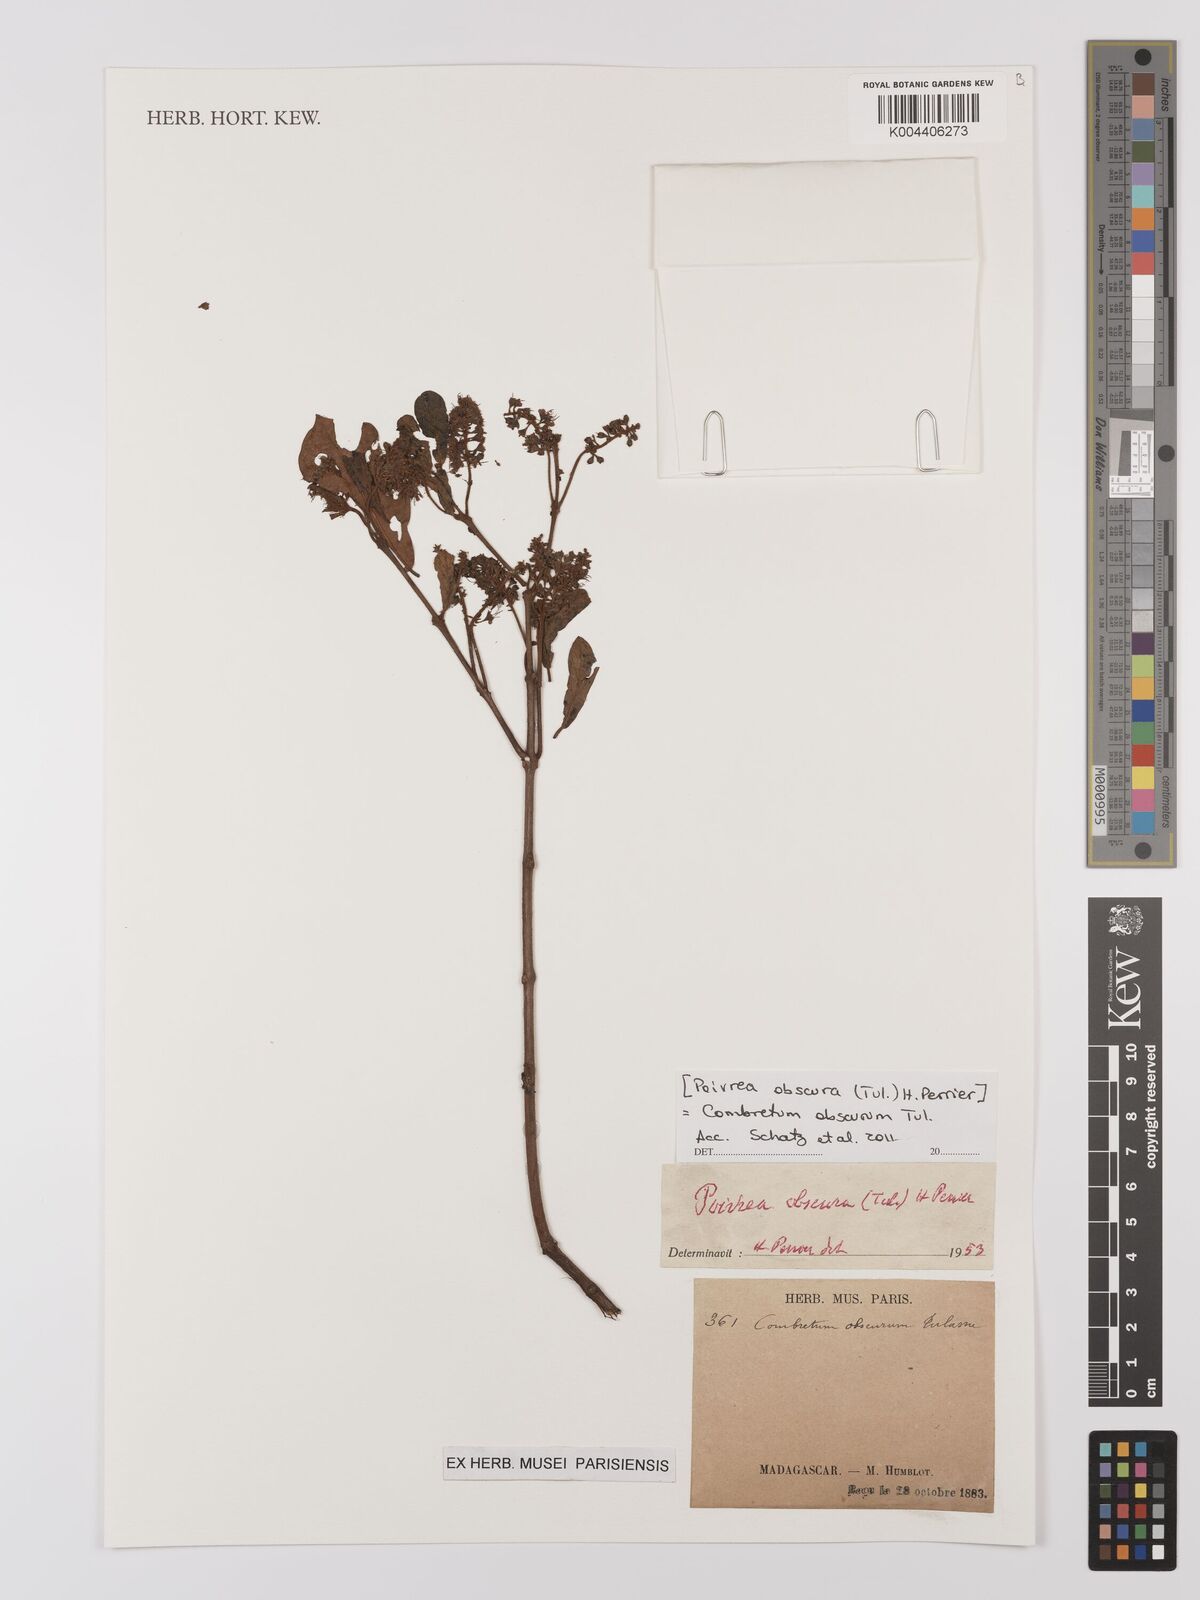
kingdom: Plantae
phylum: Tracheophyta
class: Magnoliopsida
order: Myrtales
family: Combretaceae
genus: Combretum
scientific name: Combretum obscurum
